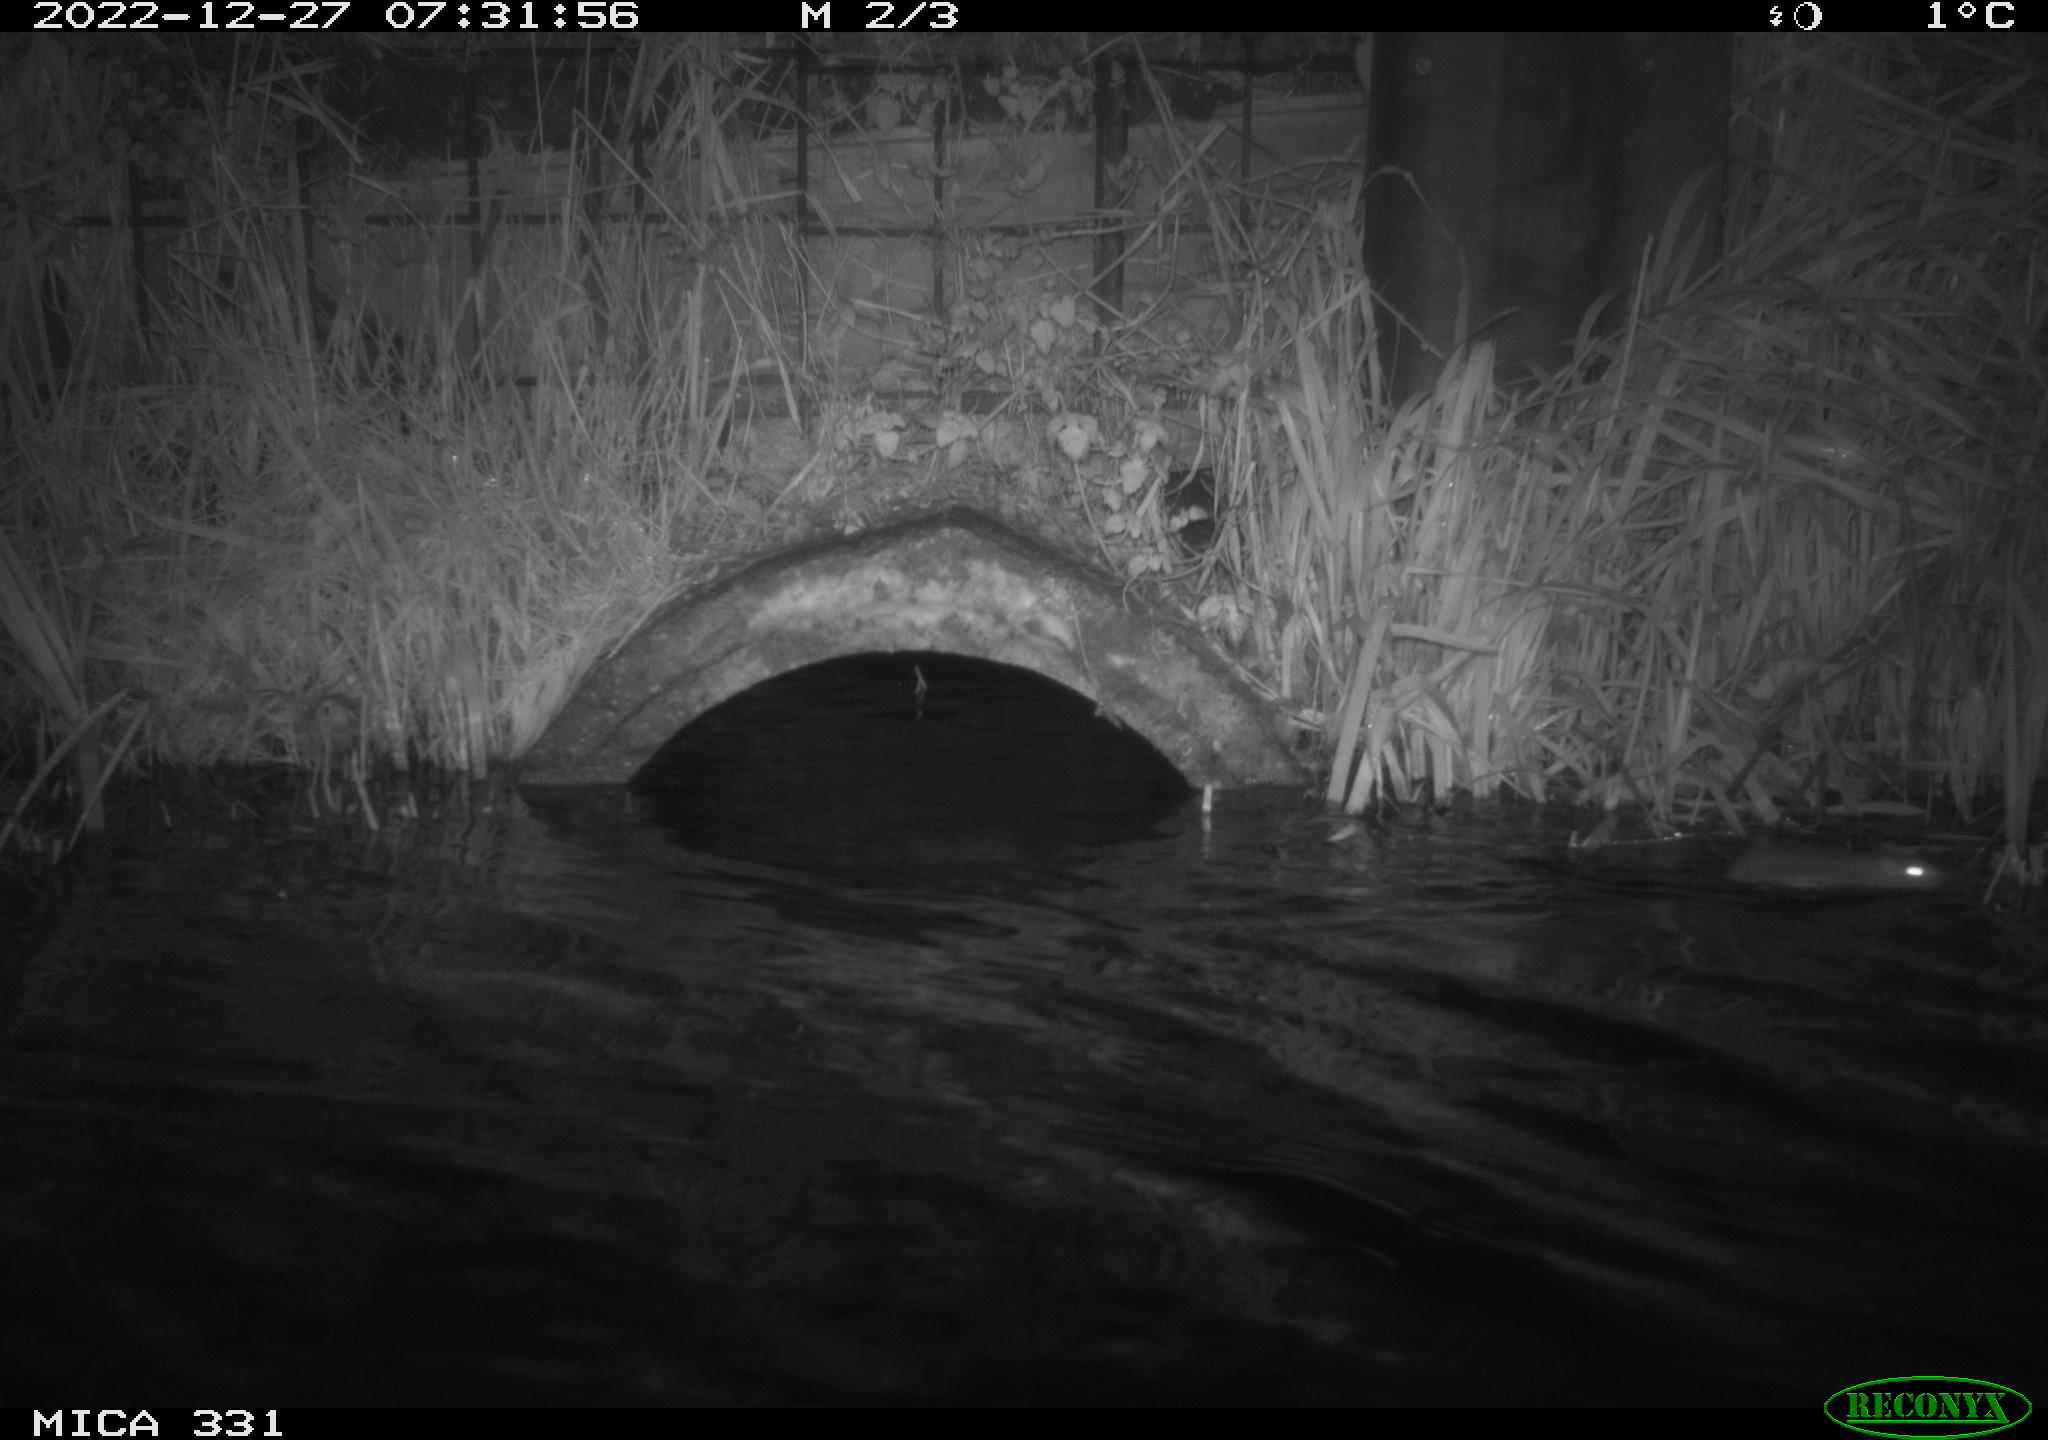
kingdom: Animalia
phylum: Chordata
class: Mammalia
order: Rodentia
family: Muridae
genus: Rattus
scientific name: Rattus norvegicus
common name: Brown rat
